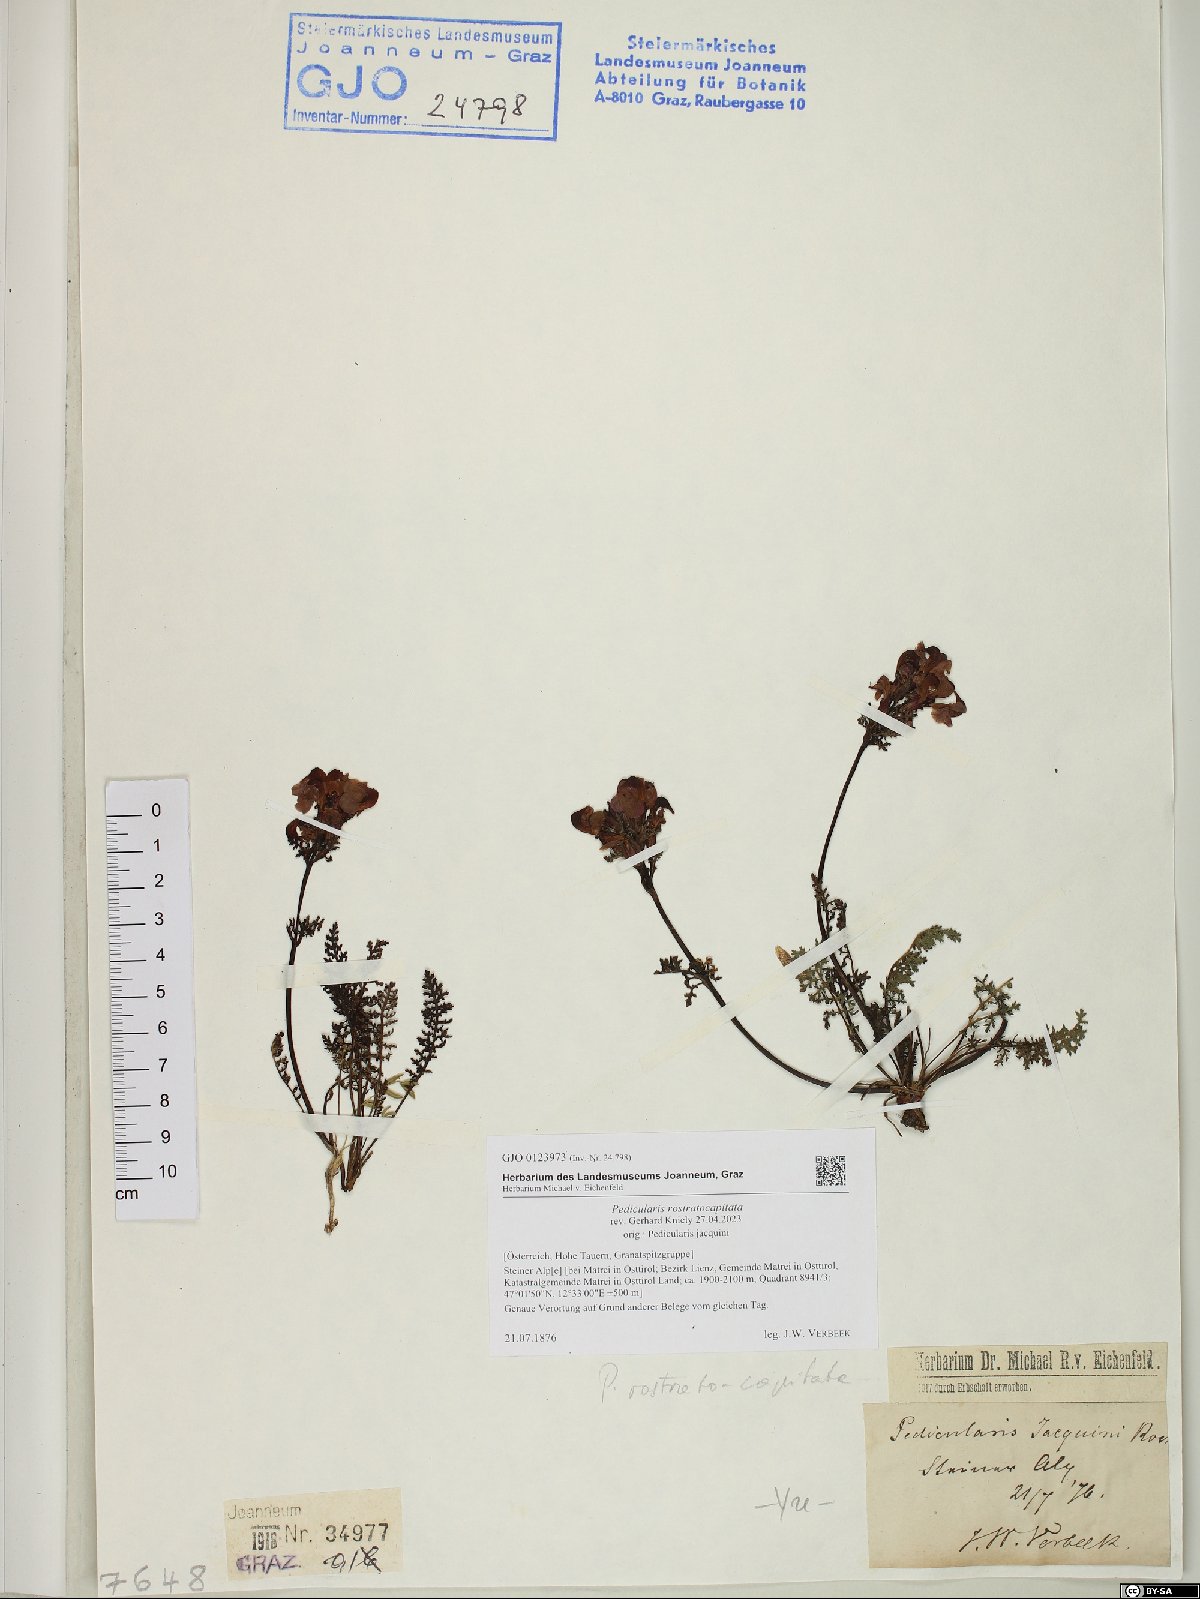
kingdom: Plantae
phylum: Tracheophyta
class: Magnoliopsida
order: Lamiales
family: Orobanchaceae
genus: Pedicularis
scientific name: Pedicularis rostratocapitata
